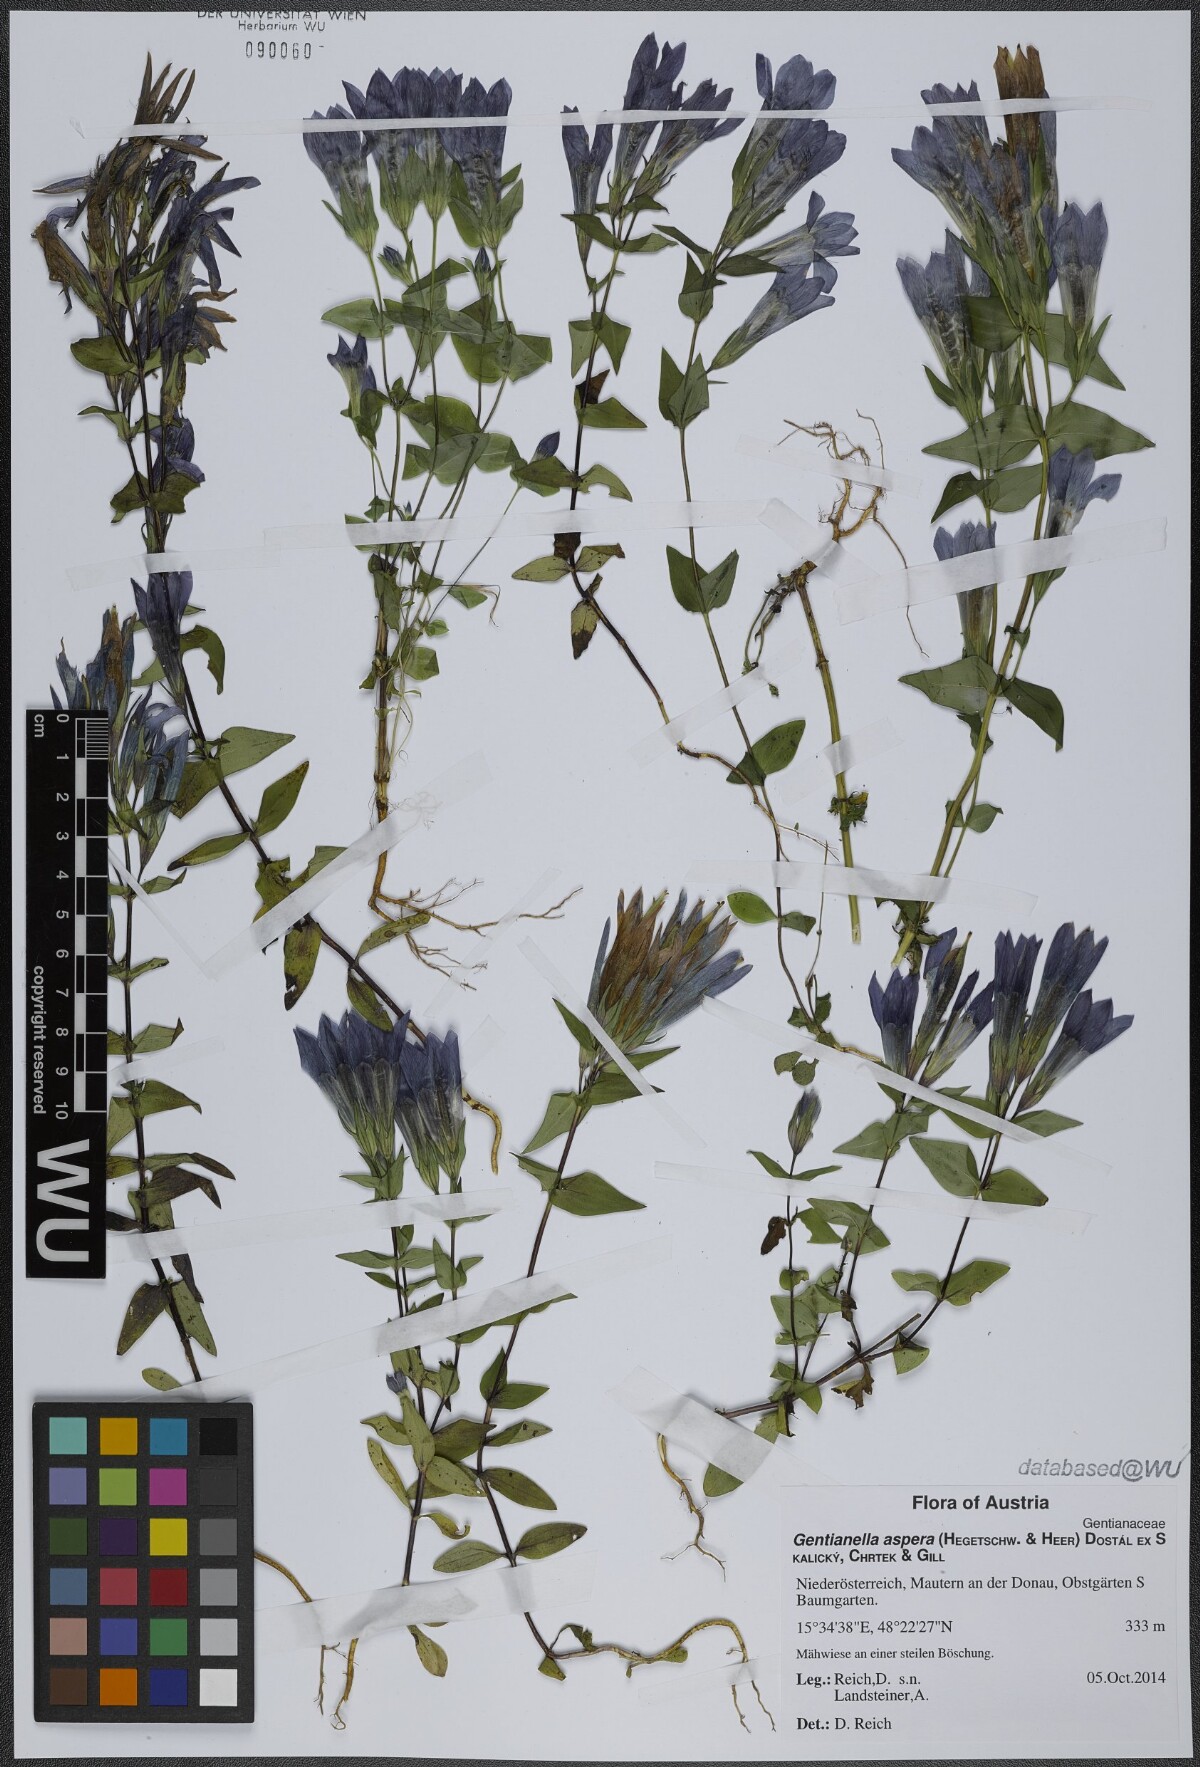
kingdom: Plantae
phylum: Tracheophyta
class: Magnoliopsida
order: Gentianales
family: Gentianaceae
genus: Gentianella
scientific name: Gentianella obtusifolia
